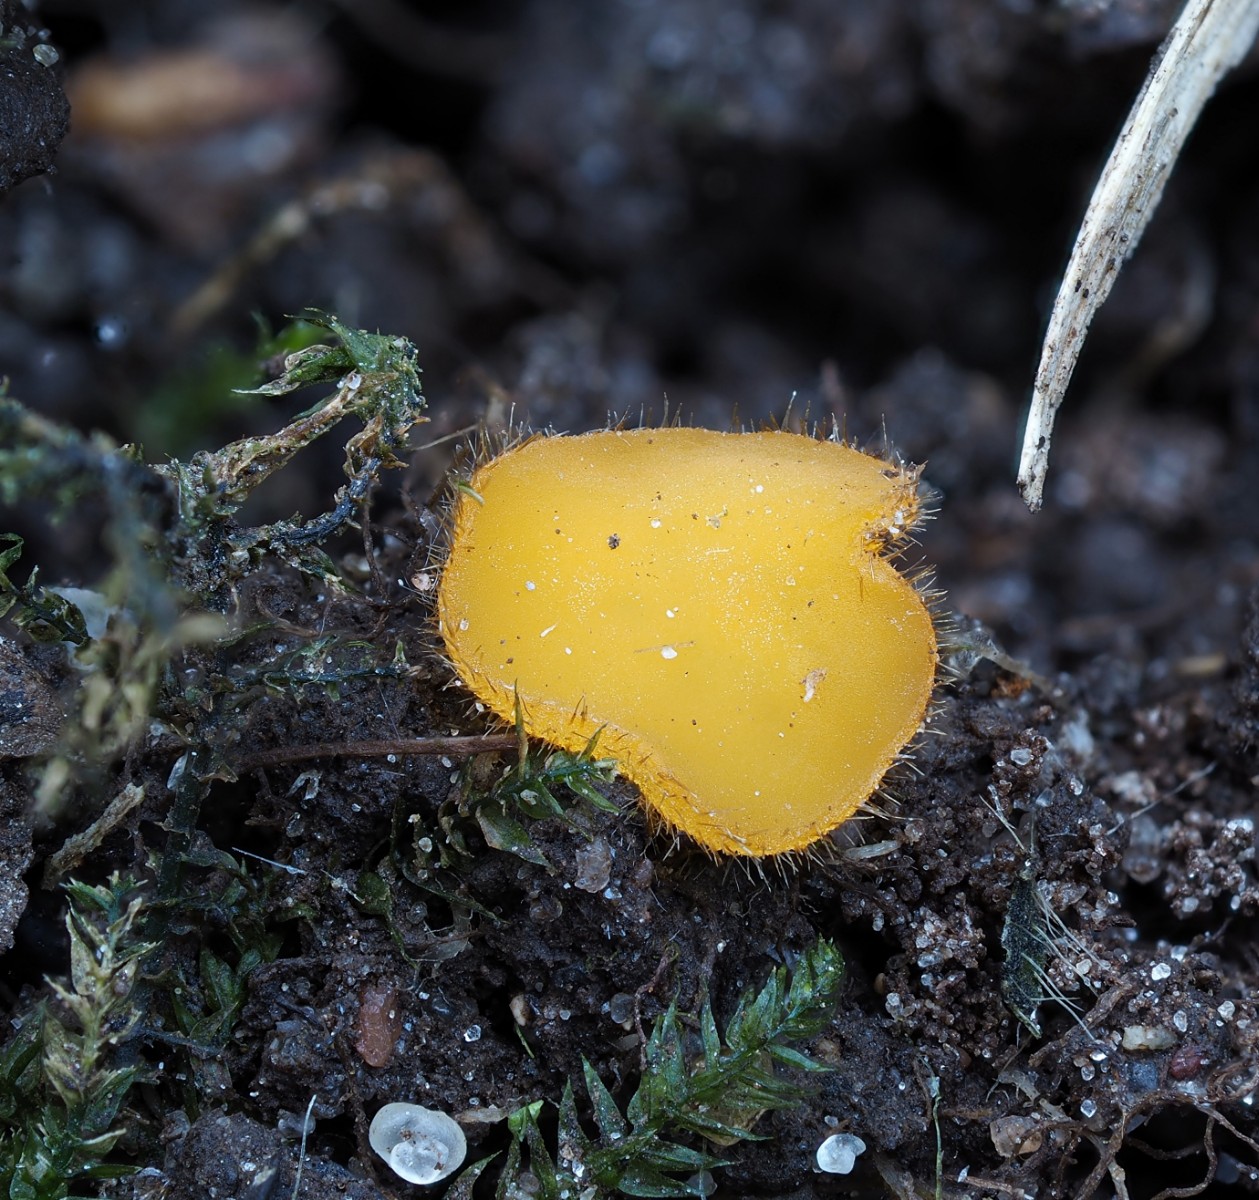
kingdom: Fungi
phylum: Ascomycota
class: Pezizomycetes
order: Pezizales
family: Pyronemataceae
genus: Cheilymenia
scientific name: Cheilymenia vitellina
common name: æggegul hårbæger
